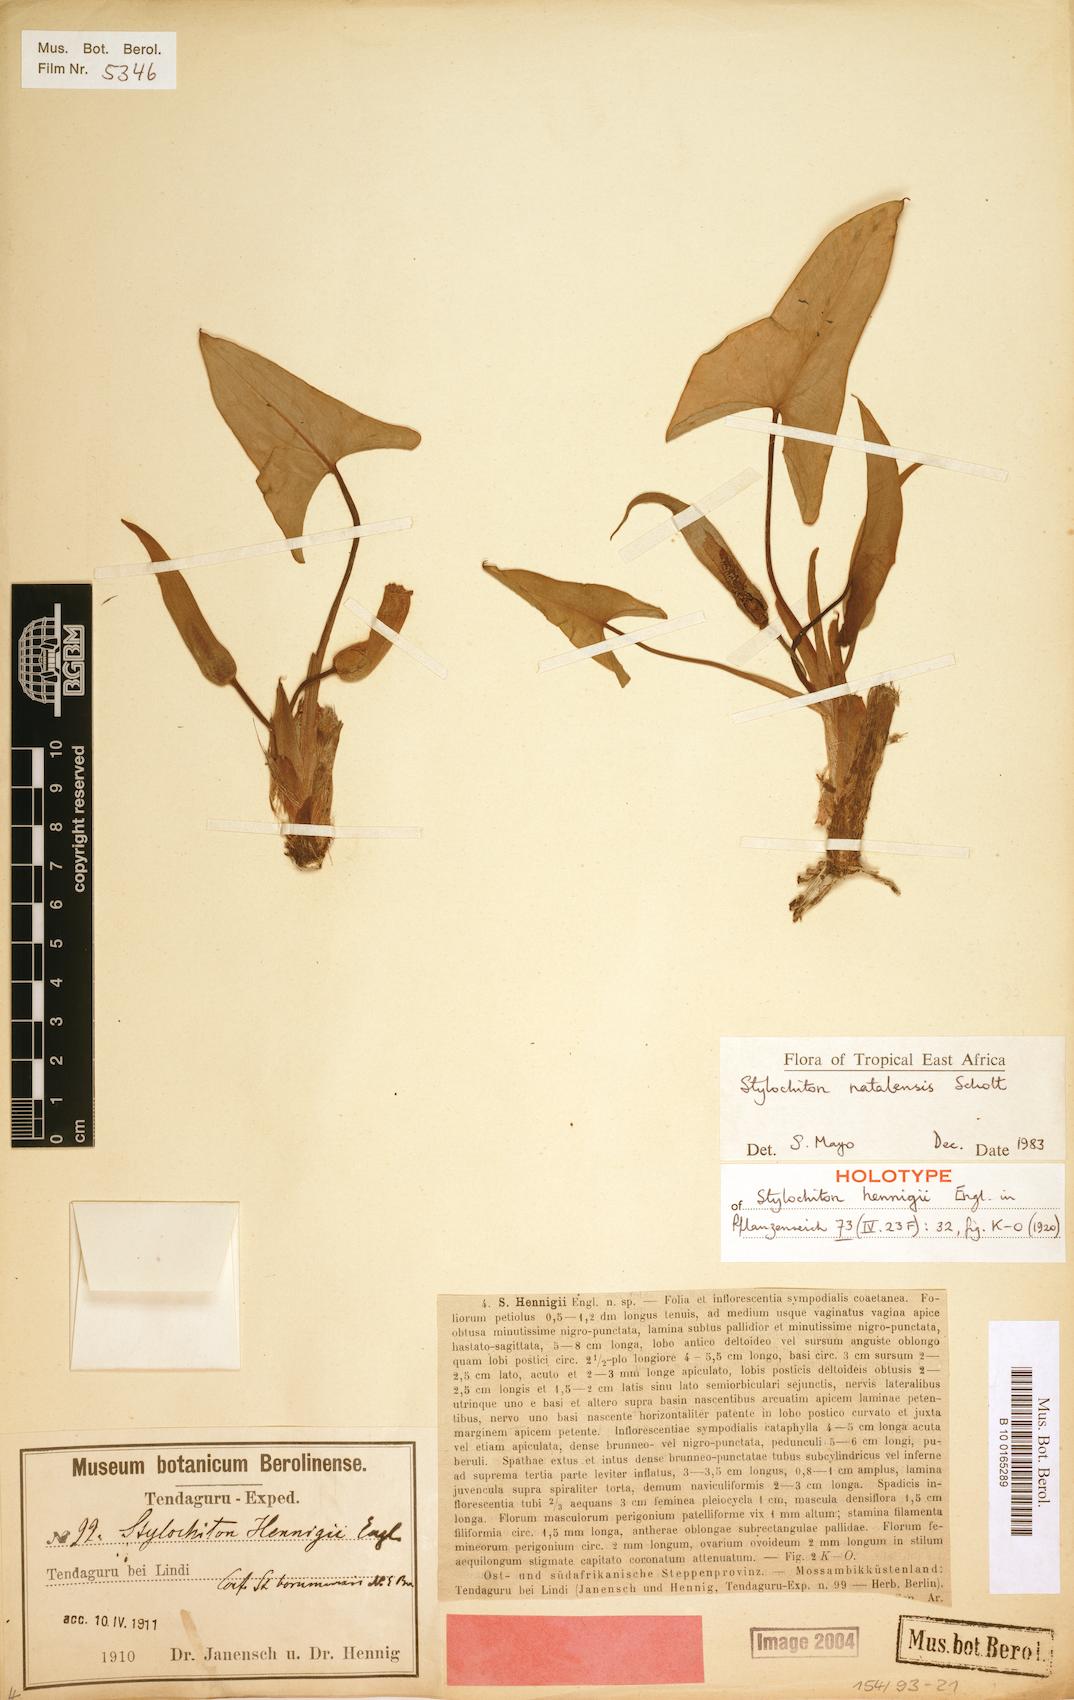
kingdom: Plantae
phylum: Tracheophyta
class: Liliopsida
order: Alismatales
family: Araceae
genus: Stylochiton
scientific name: Stylochiton natalensis
